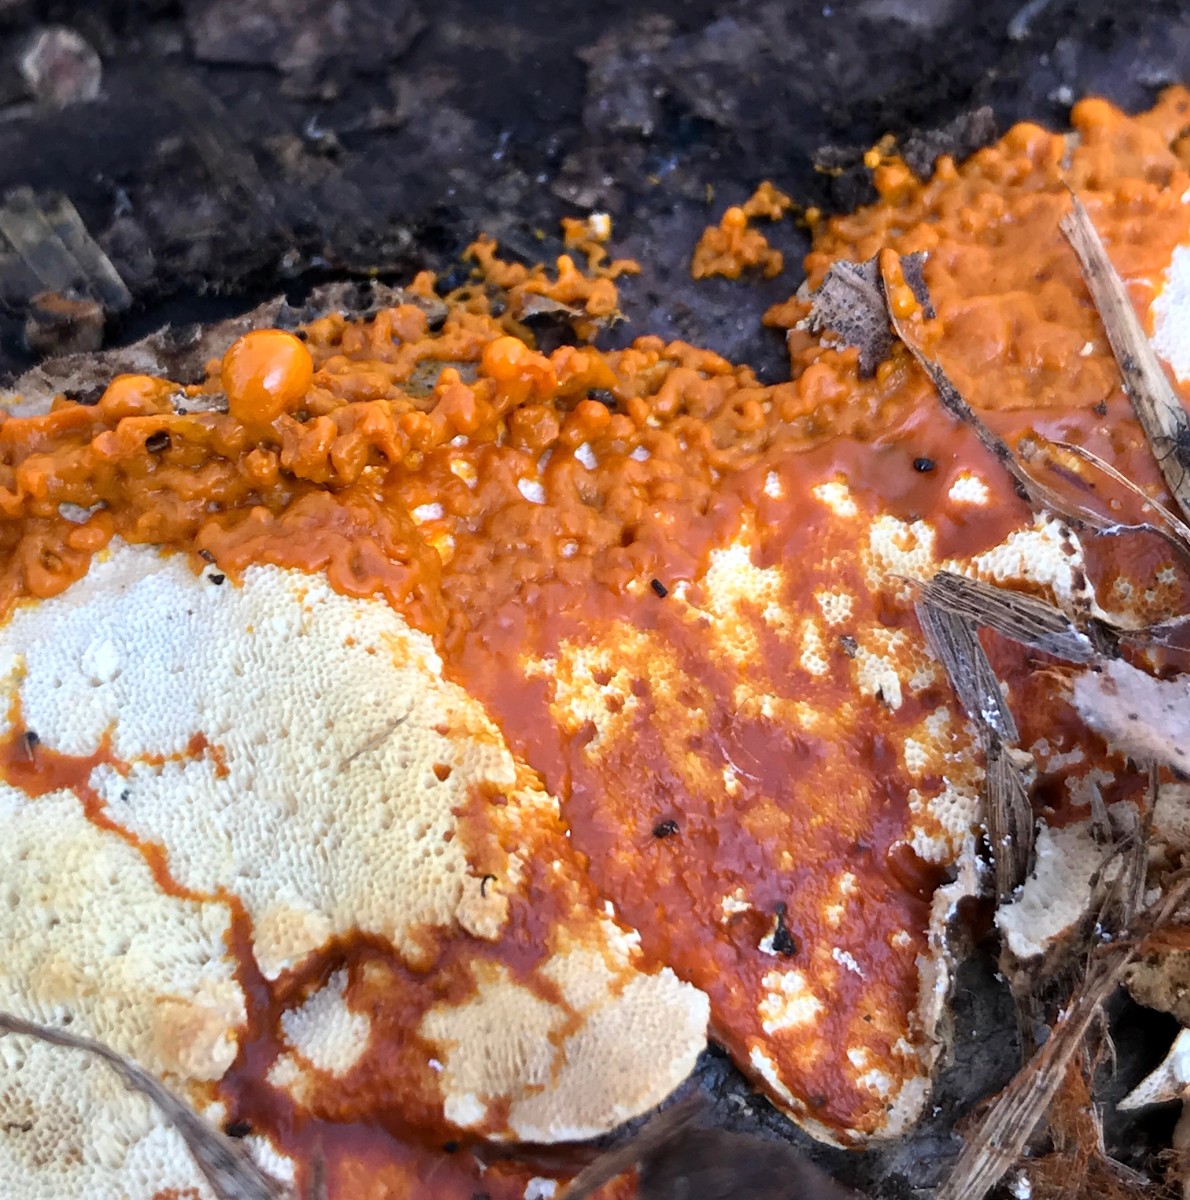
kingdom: Protozoa
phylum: Mycetozoa
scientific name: Mycetozoa
